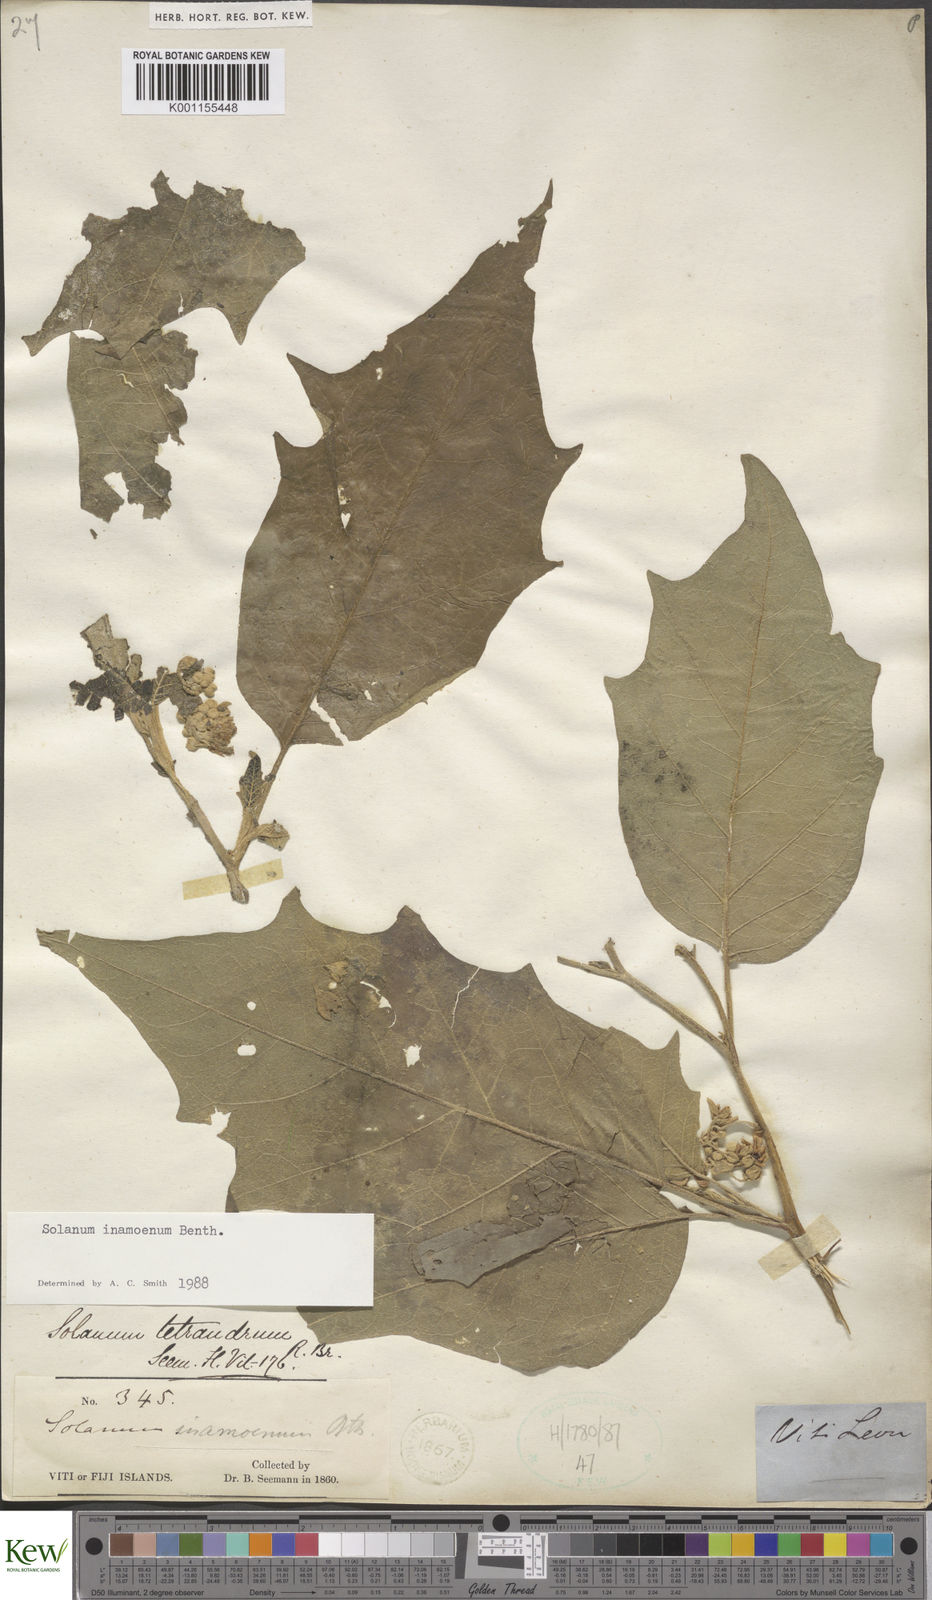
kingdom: Plantae
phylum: Tracheophyta
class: Magnoliopsida
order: Solanales
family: Solanaceae
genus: Solanum
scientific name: Solanum inamoenum
